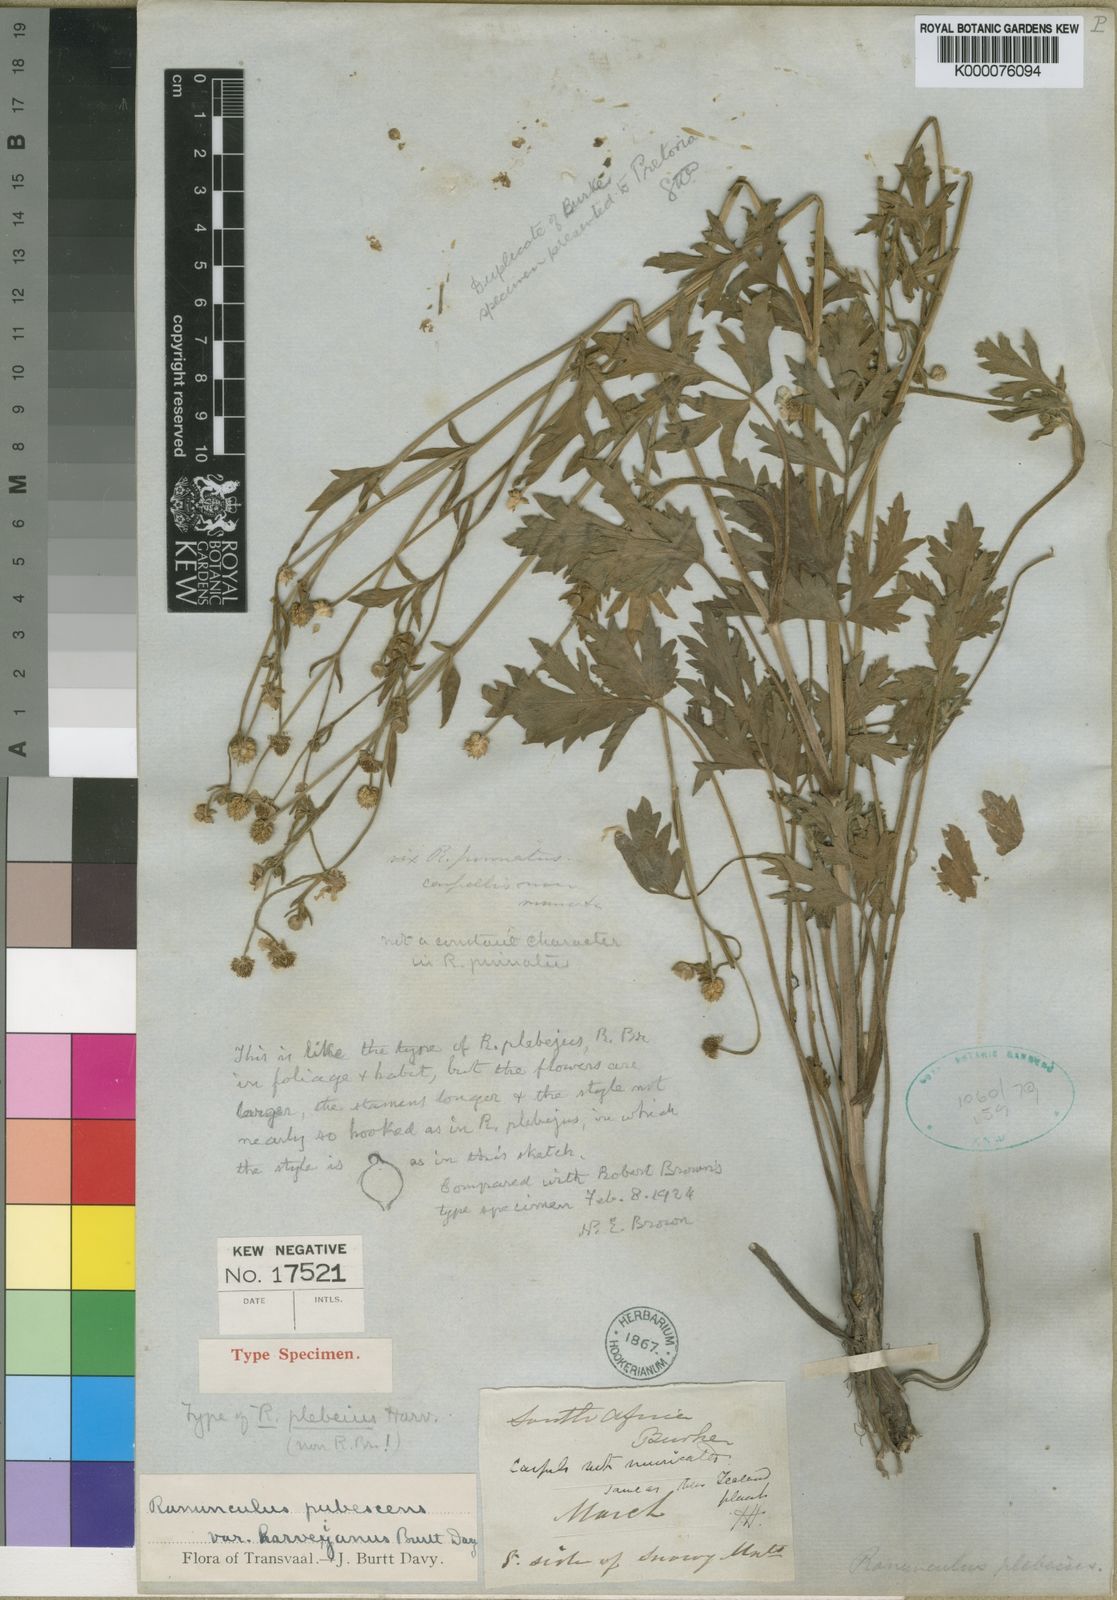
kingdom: Plantae
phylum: Tracheophyta
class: Magnoliopsida
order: Ranunculales
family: Ranunculaceae
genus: Ranunculus
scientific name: Ranunculus multifidus
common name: Wild buttercup
